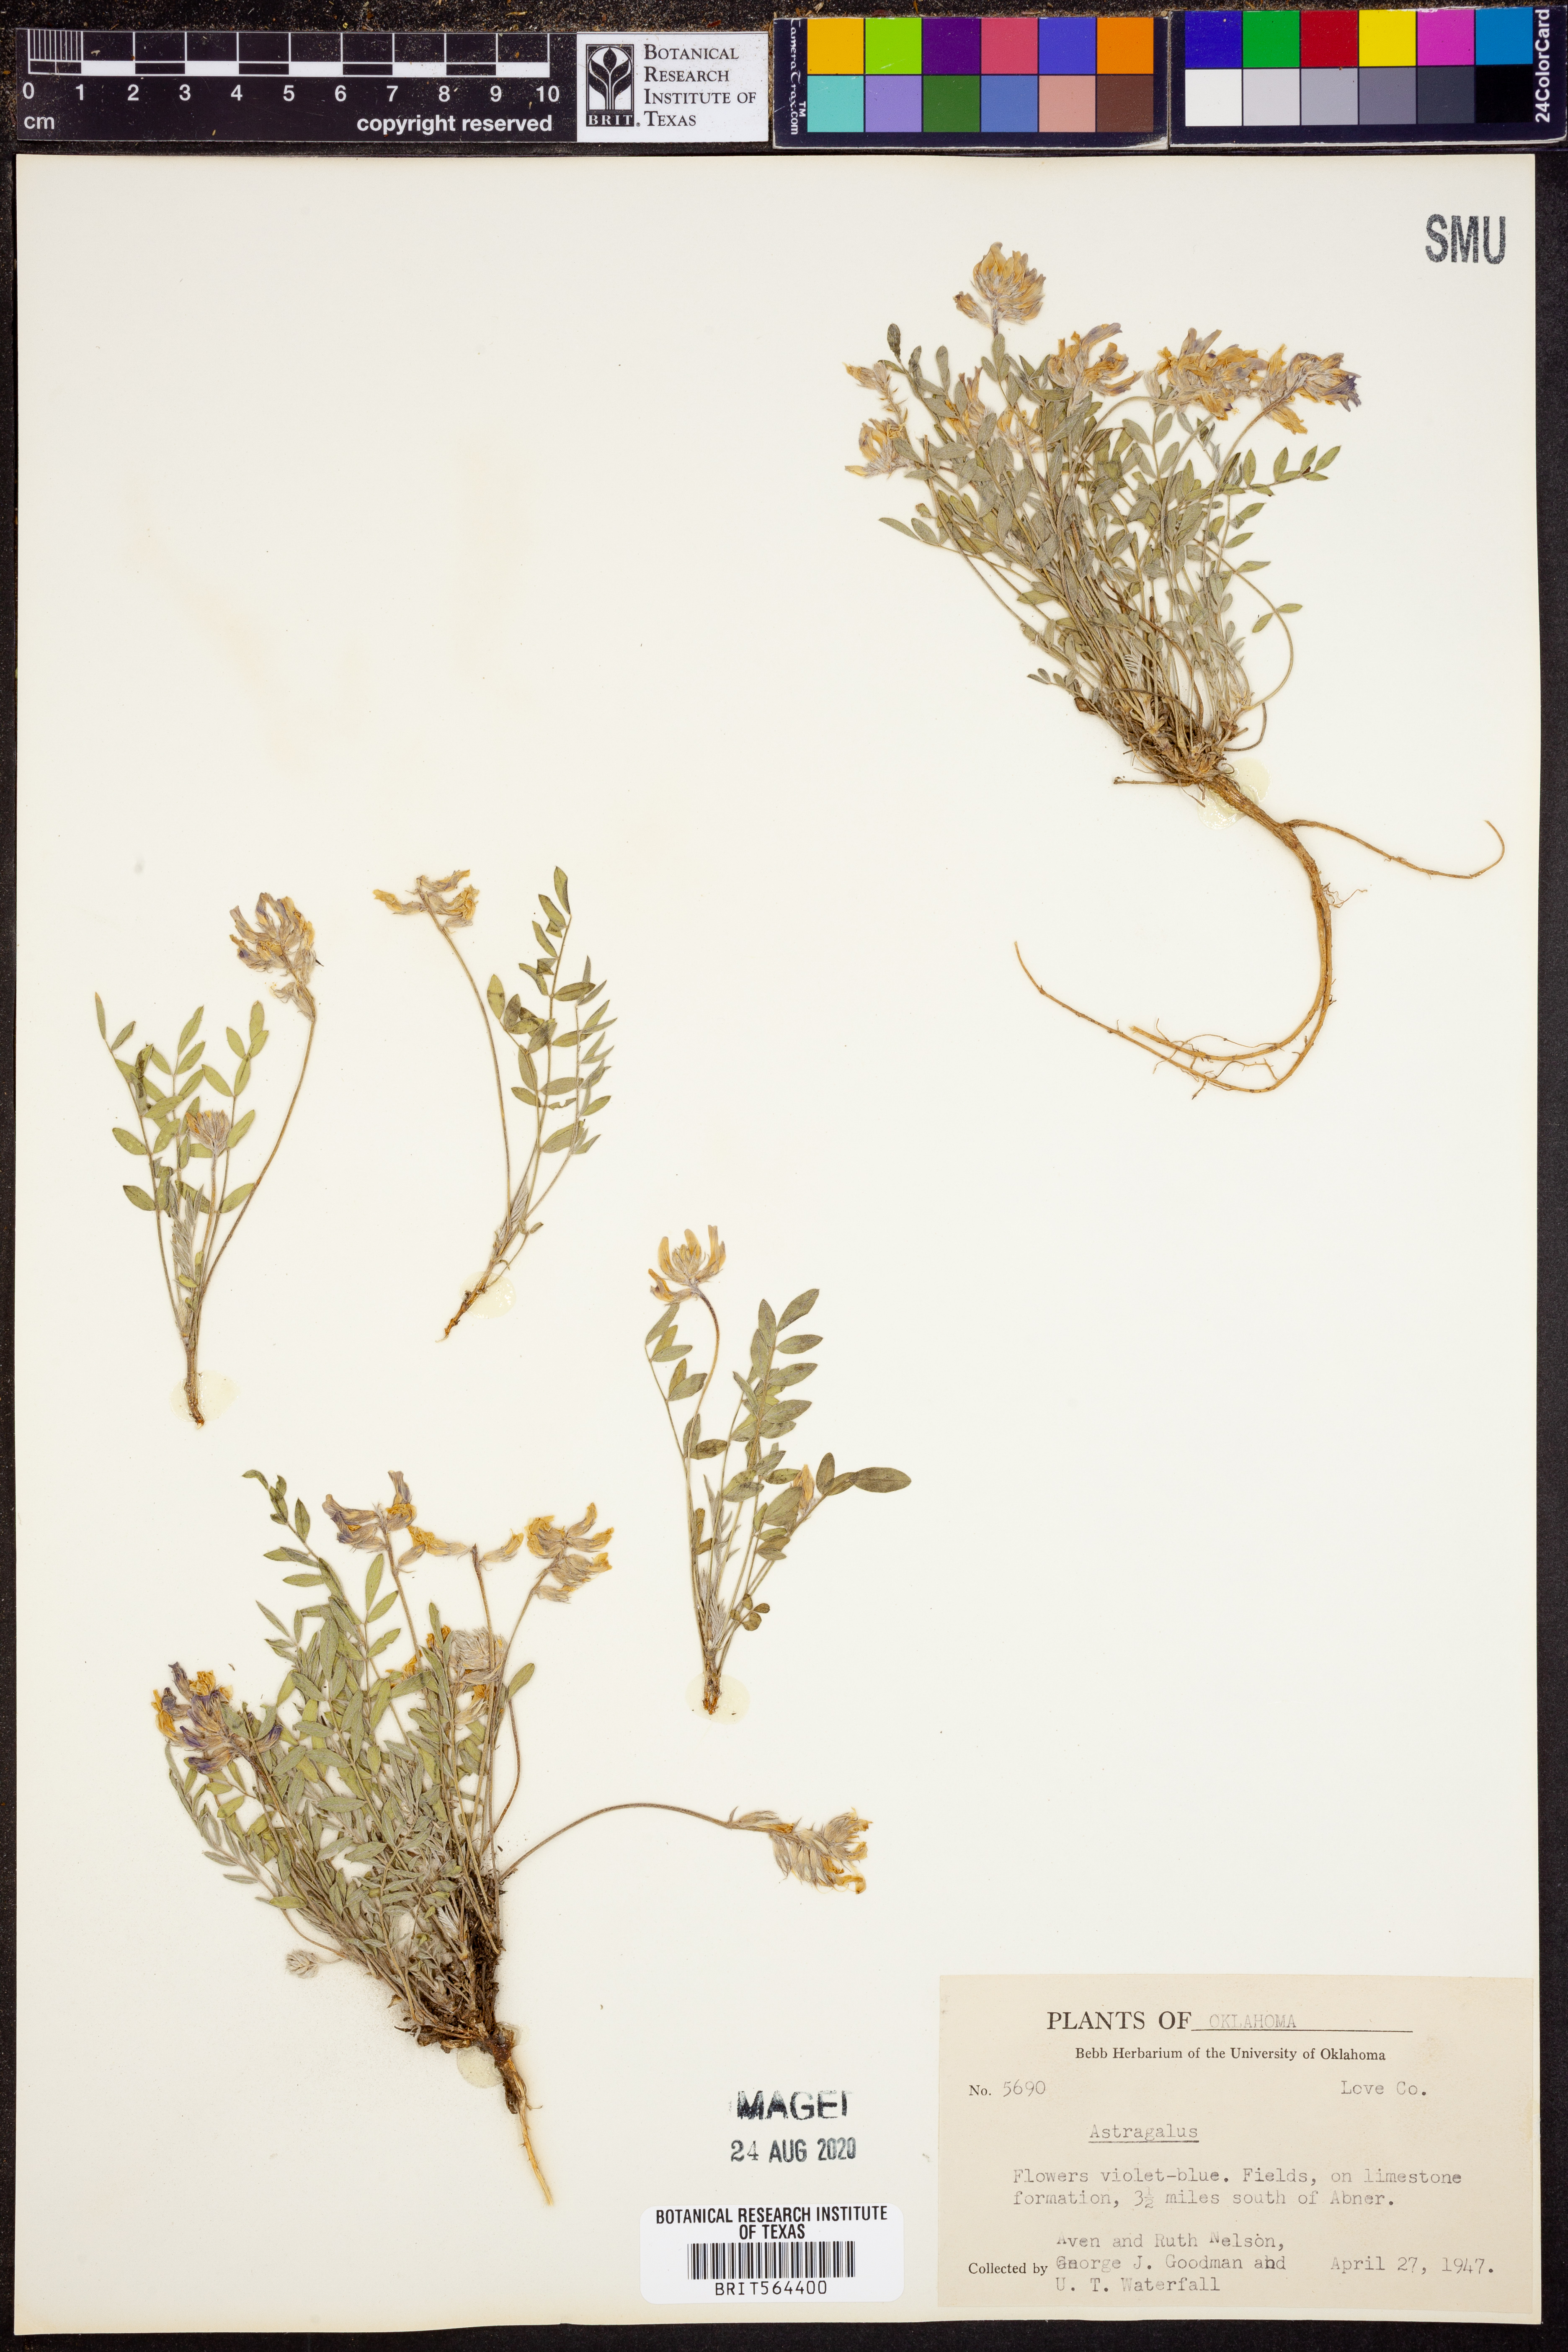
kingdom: Plantae
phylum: Tracheophyta
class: Magnoliopsida
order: Fabales
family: Fabaceae
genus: Astragalus
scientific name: Astragalus
